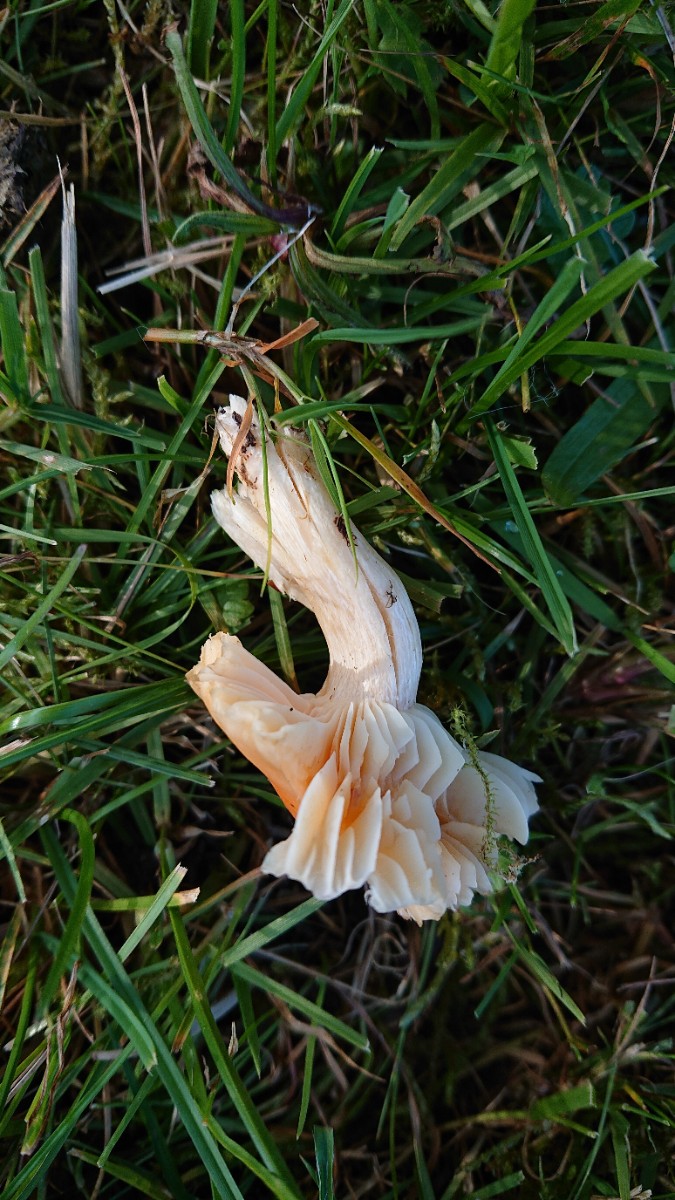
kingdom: Fungi
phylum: Basidiomycota
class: Agaricomycetes
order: Agaricales
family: Hygrophoraceae
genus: Cuphophyllus
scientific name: Cuphophyllus pratensis
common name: eng-vokshat
